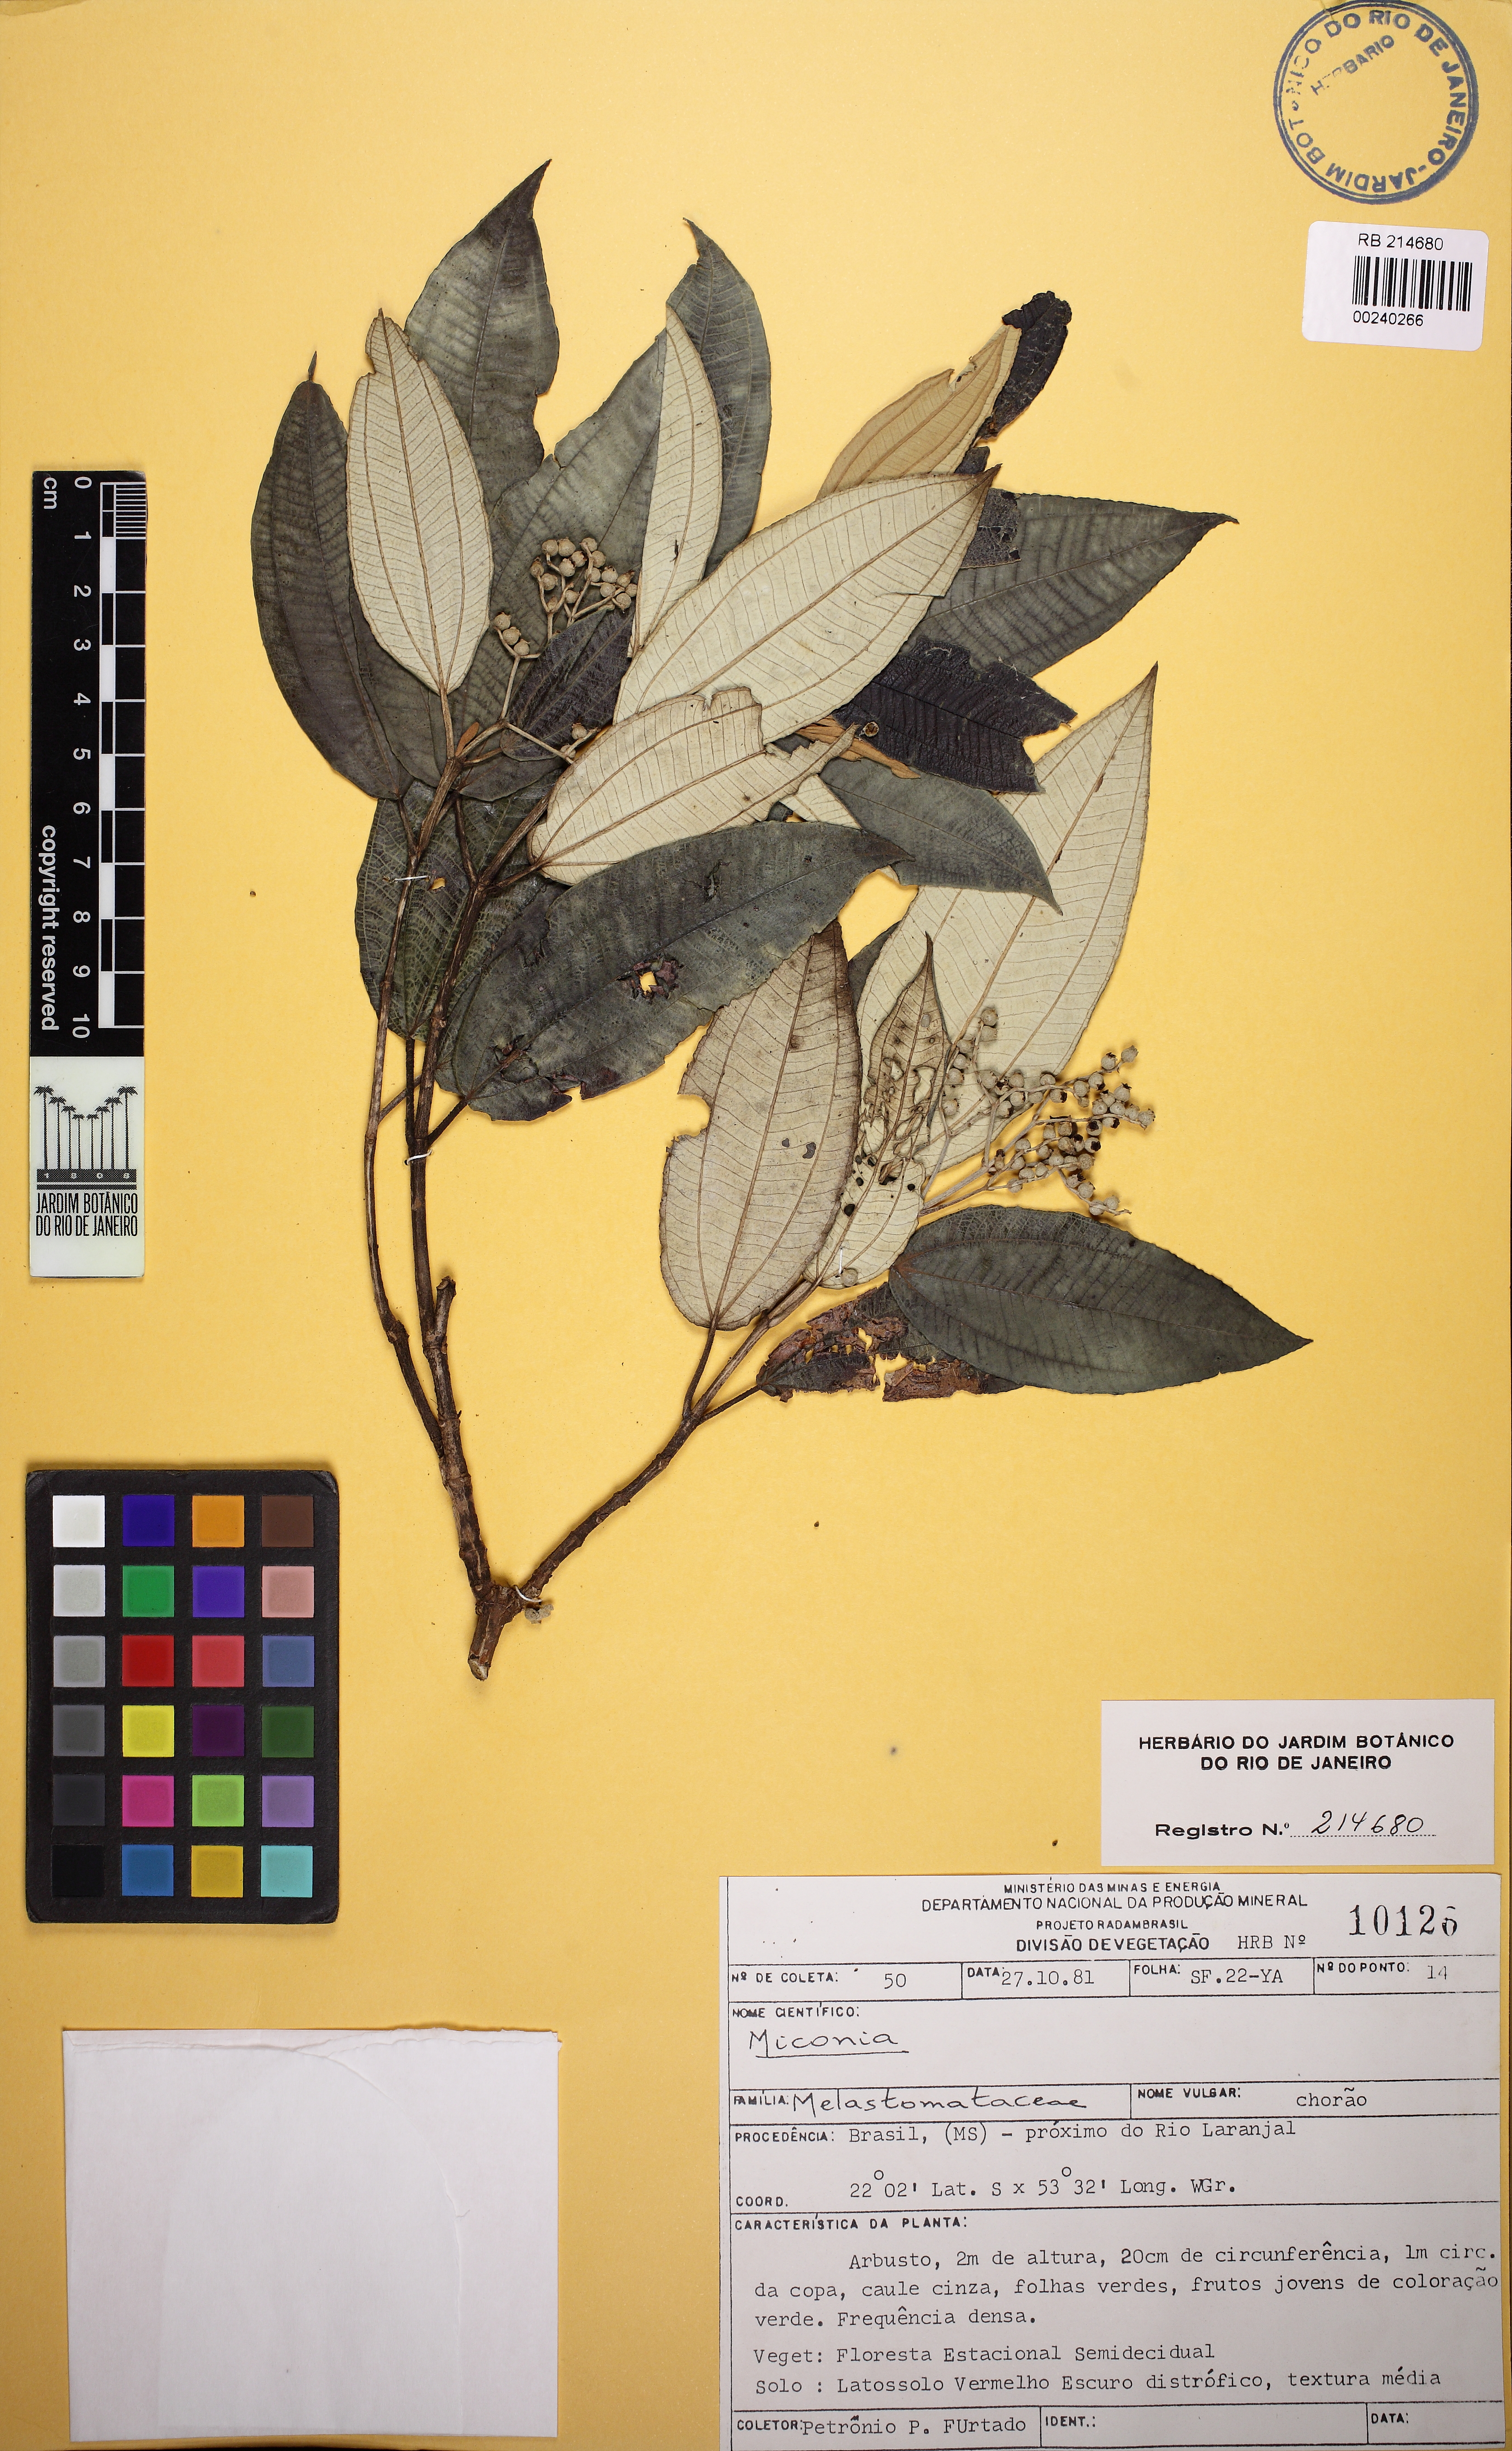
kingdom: Plantae
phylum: Tracheophyta
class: Magnoliopsida
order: Myrtales
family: Melastomataceae
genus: Miconia
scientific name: Miconia
